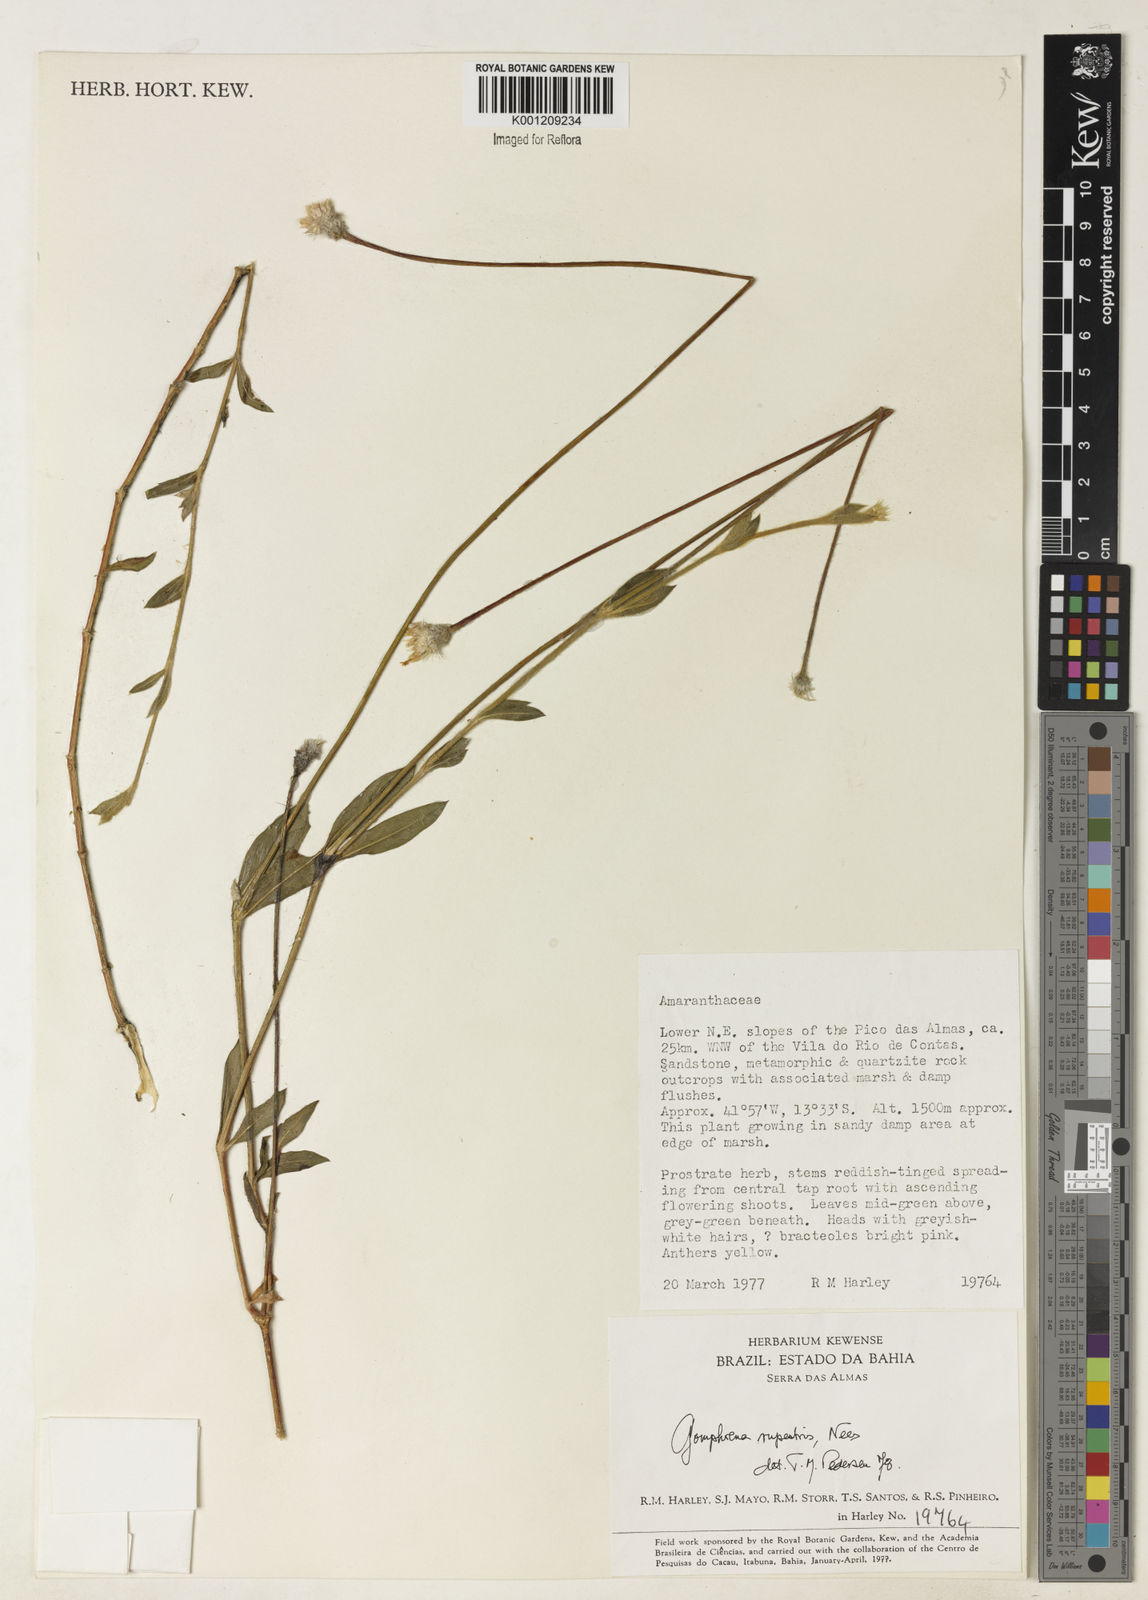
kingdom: Plantae
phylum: Tracheophyta
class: Magnoliopsida
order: Caryophyllales
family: Amaranthaceae
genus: Gomphrena
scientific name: Gomphrena rupestris
